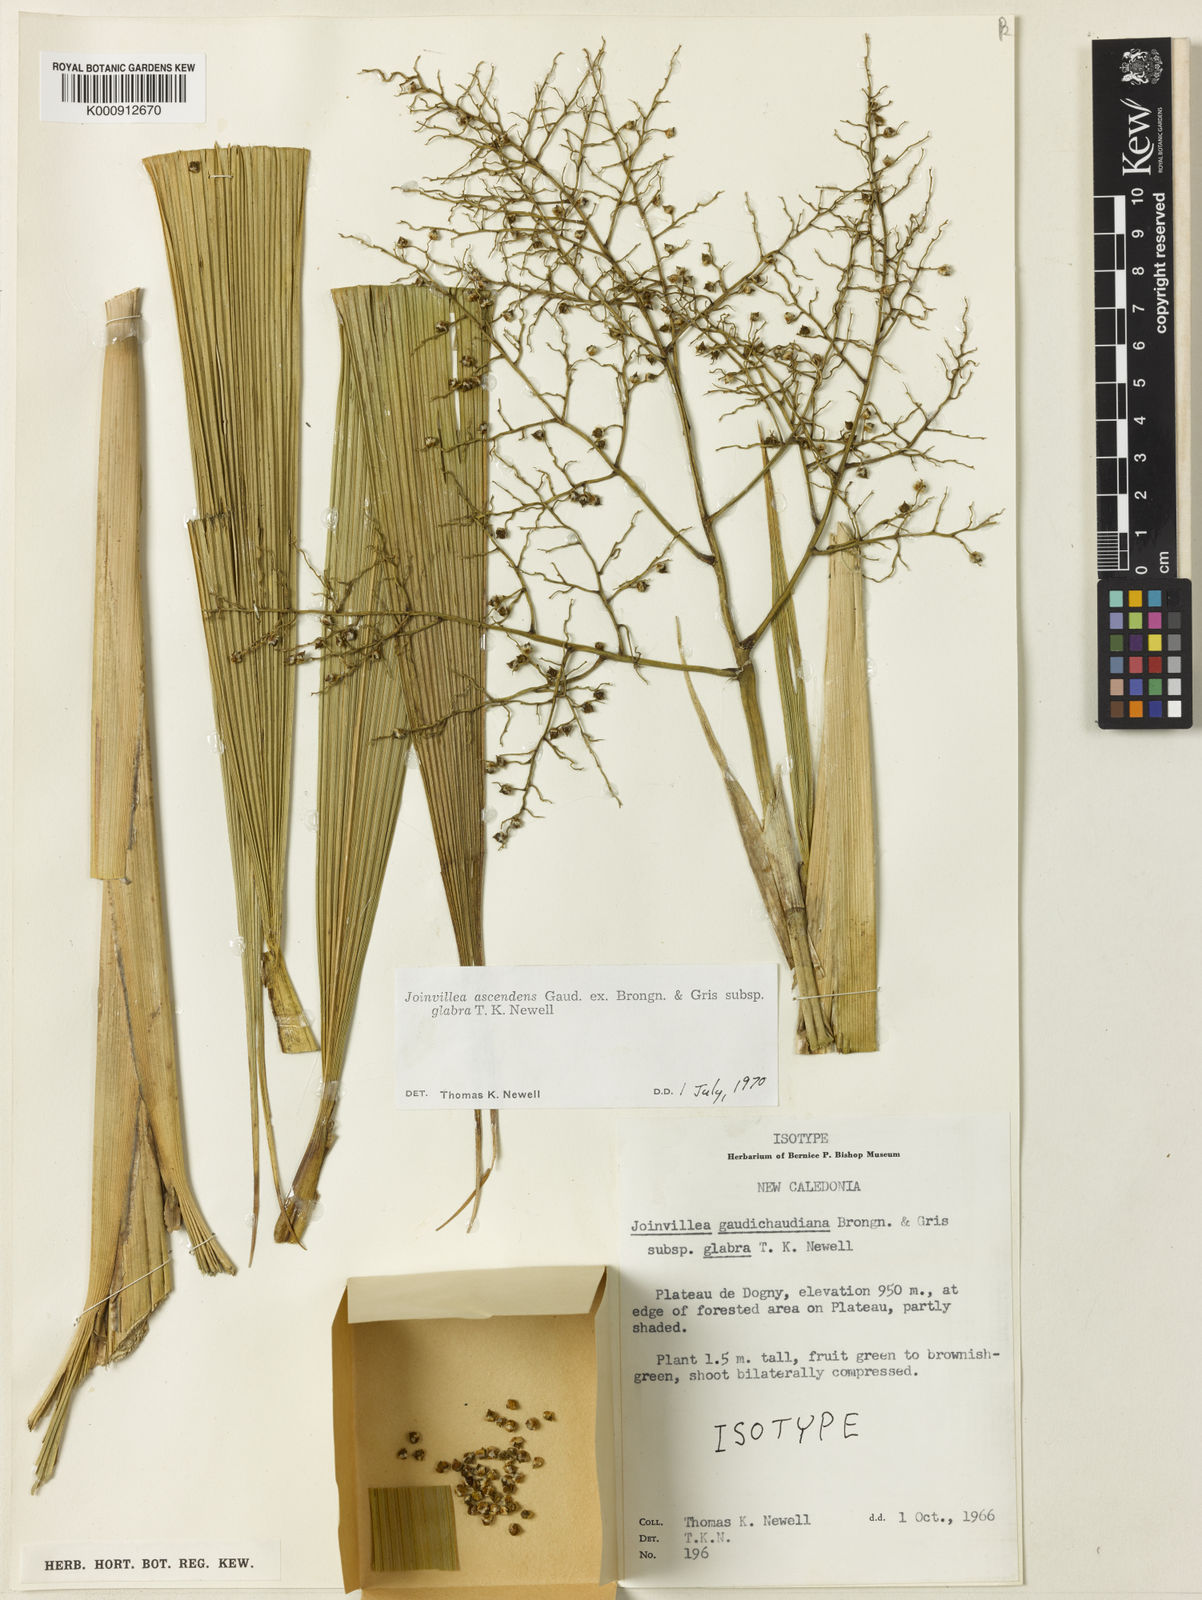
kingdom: Plantae
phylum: Tracheophyta
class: Liliopsida
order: Poales
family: Joinvilleaceae
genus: Joinvillea
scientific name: Joinvillea ascendens
